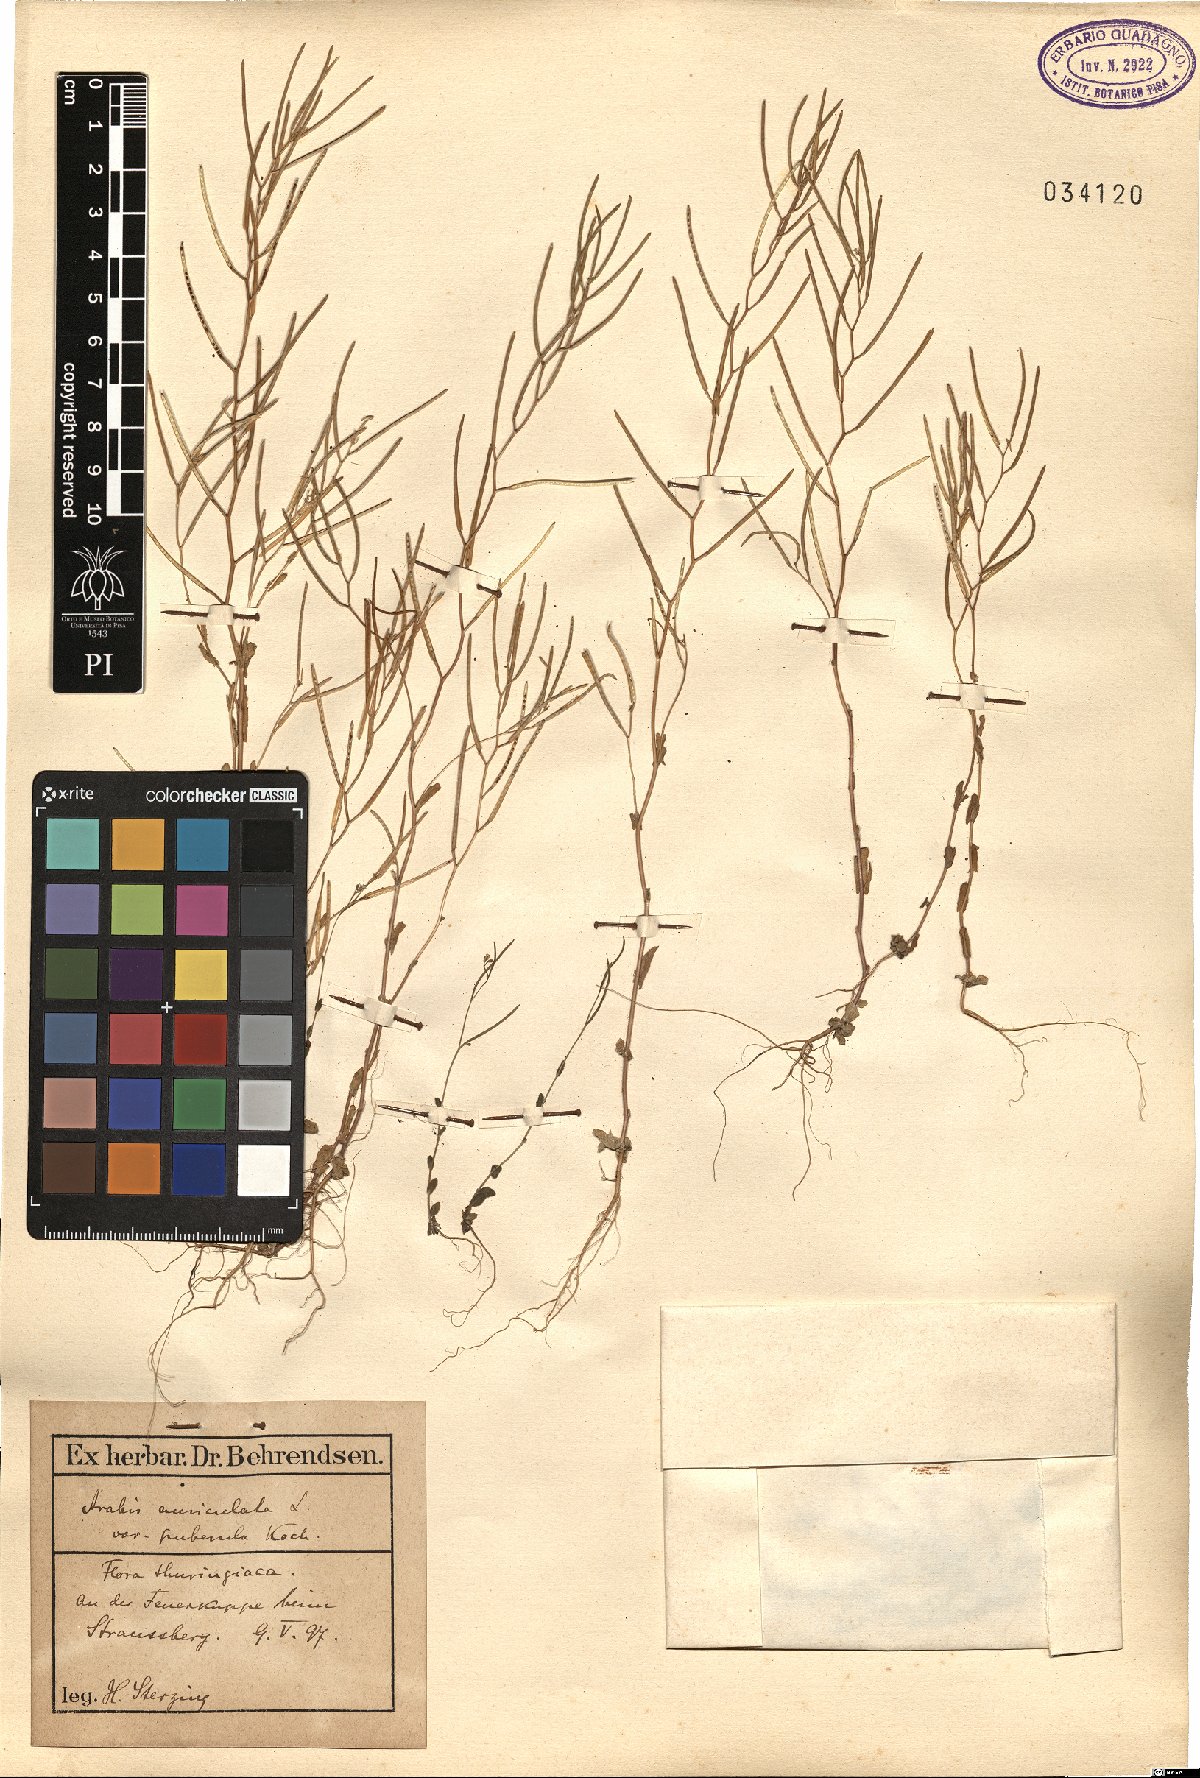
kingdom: Plantae
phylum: Tracheophyta
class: Magnoliopsida
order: Brassicales
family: Brassicaceae
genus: Arabis
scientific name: Arabis auriculata
